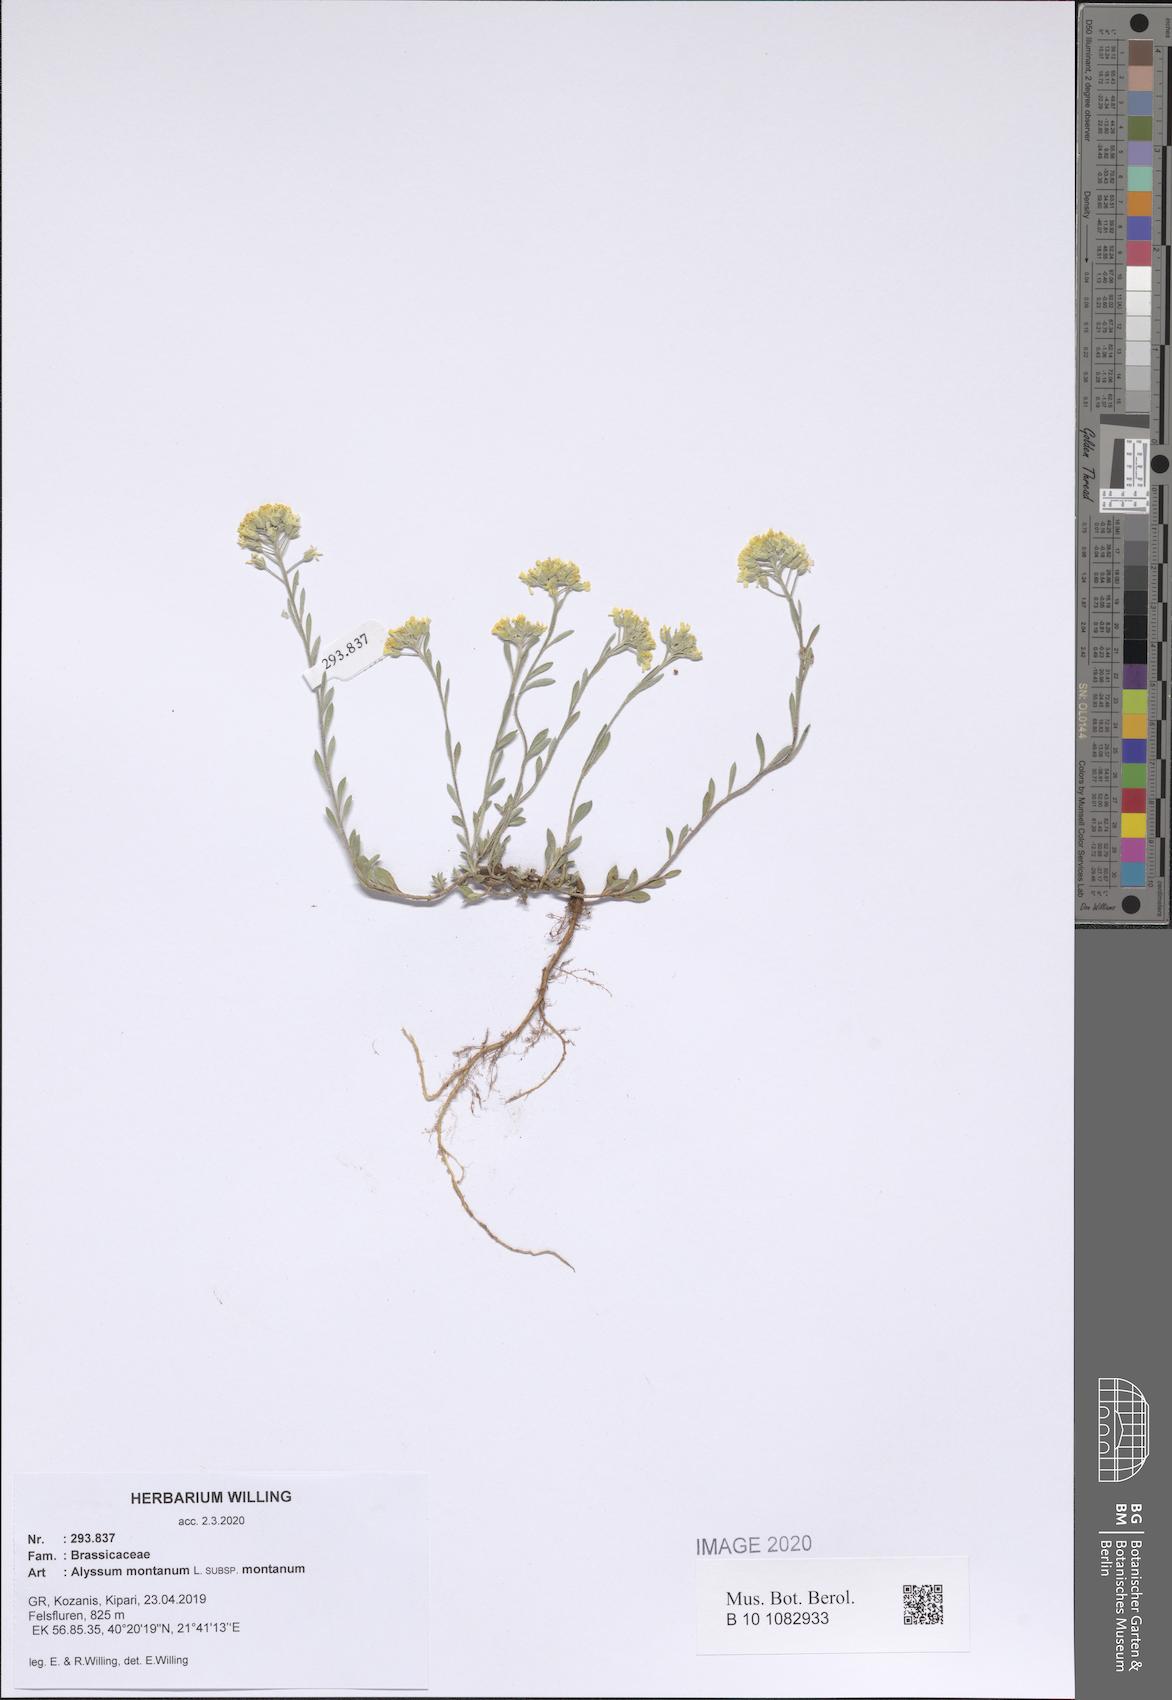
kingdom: Plantae
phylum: Tracheophyta
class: Magnoliopsida
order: Brassicales
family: Brassicaceae
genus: Alyssum
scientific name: Alyssum montanum
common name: Mountain alison
